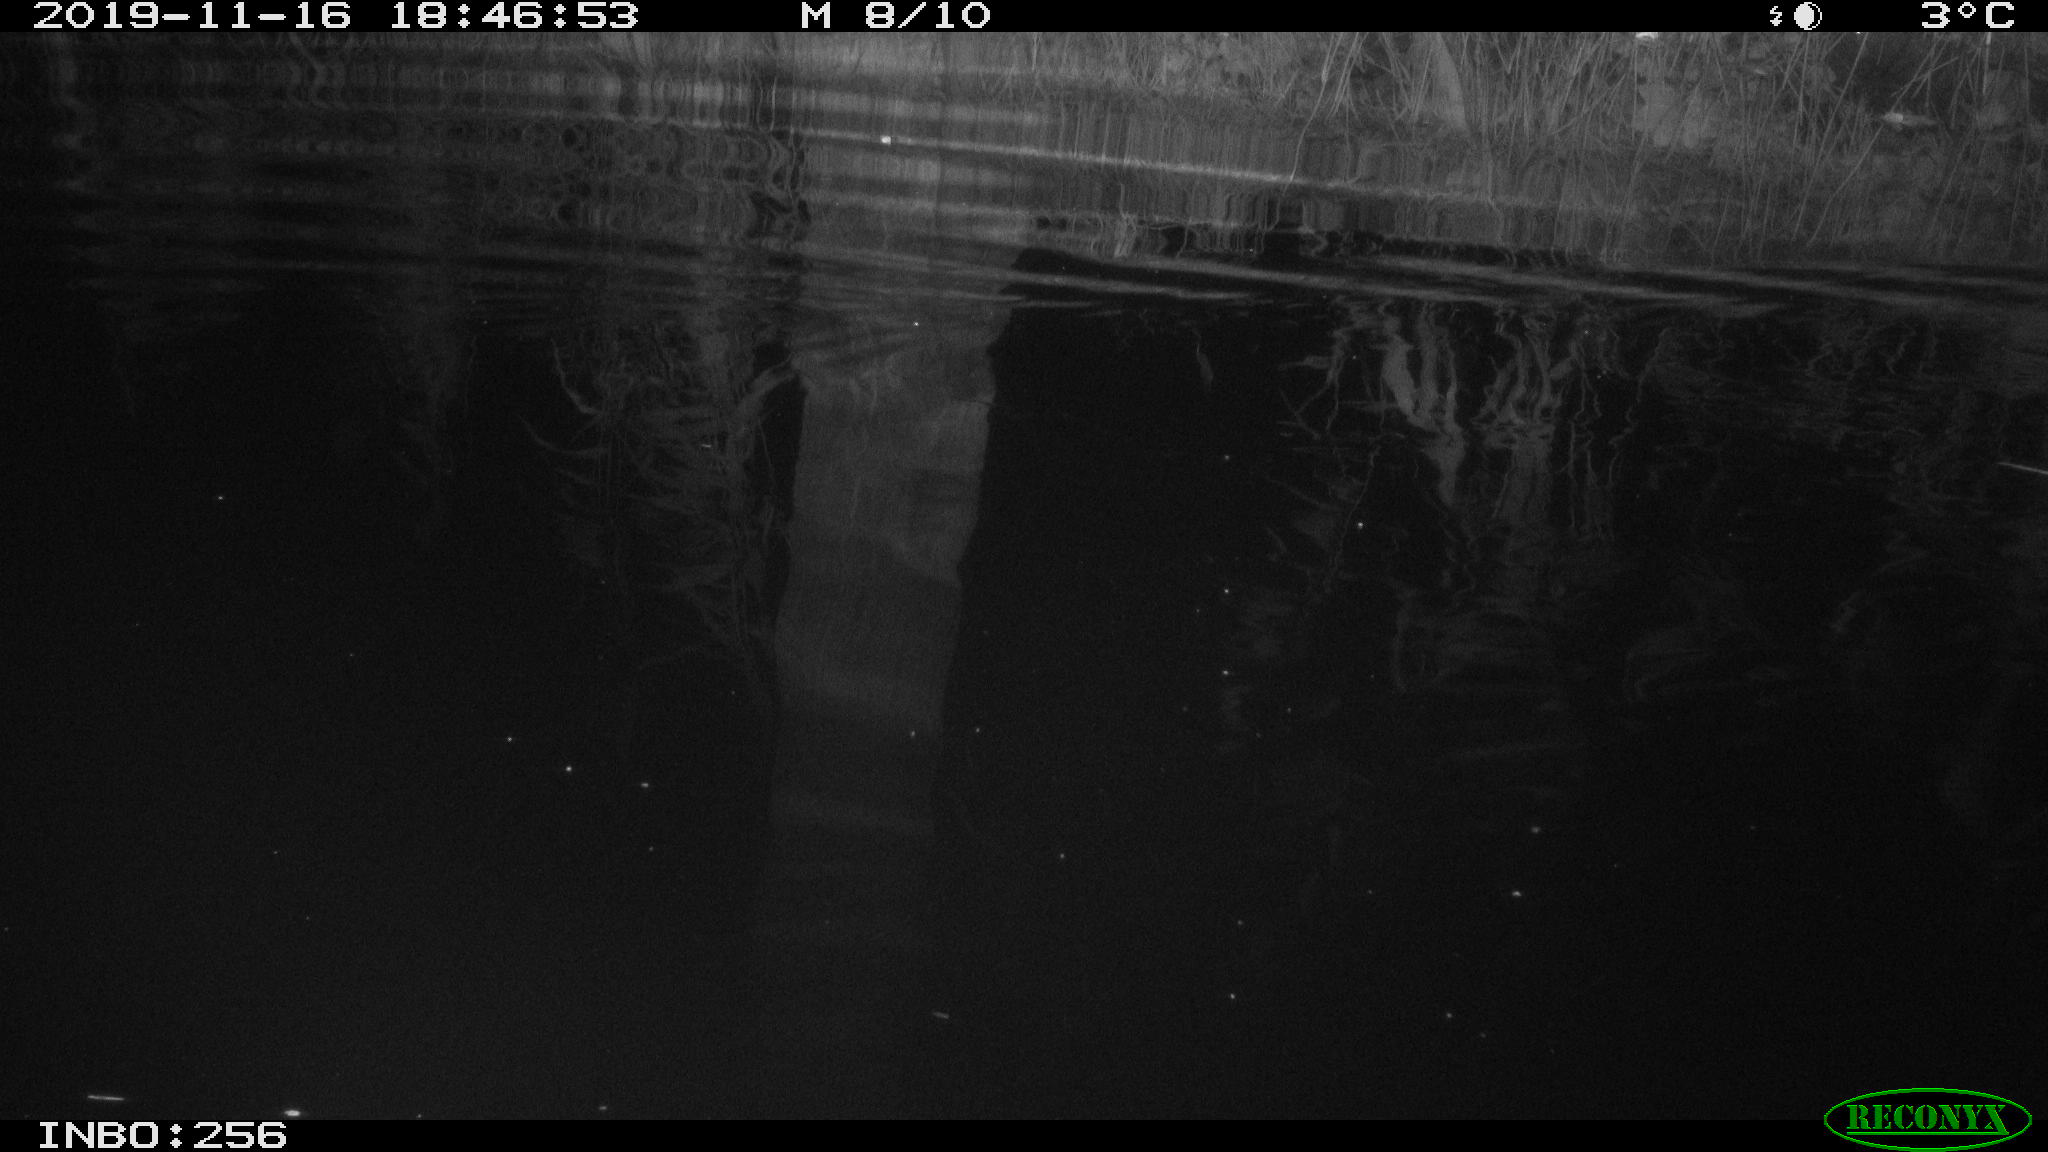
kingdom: Animalia
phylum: Chordata
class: Mammalia
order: Rodentia
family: Muridae
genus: Rattus
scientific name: Rattus norvegicus
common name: Brown rat
